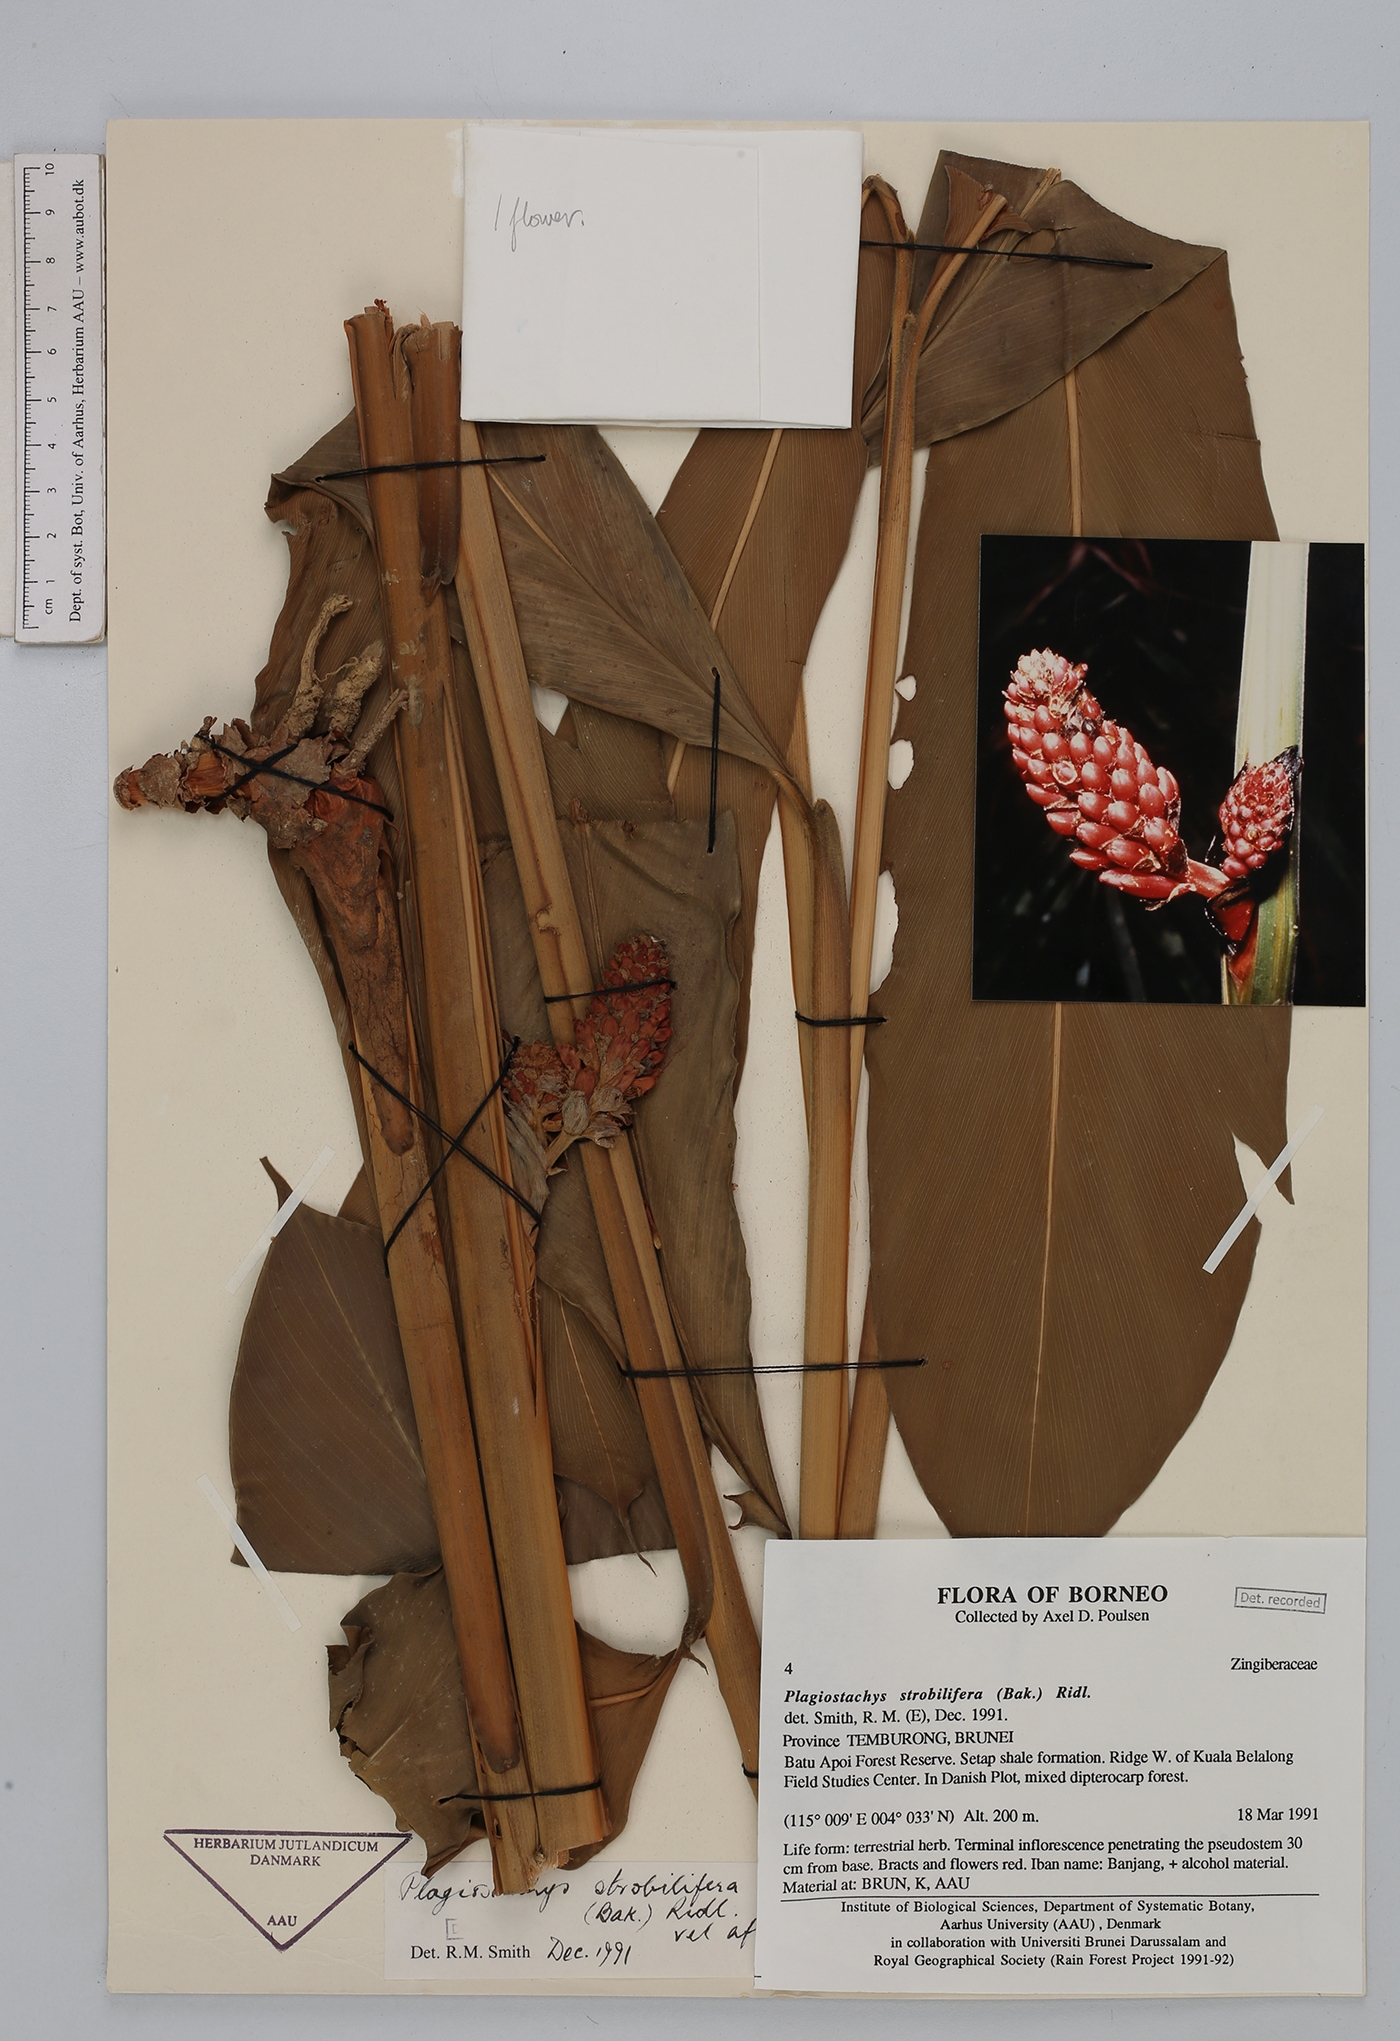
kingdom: Plantae
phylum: Tracheophyta
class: Liliopsida
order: Zingiberales
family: Zingiberaceae
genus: Plagiostachys
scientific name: Plagiostachys strobilifera
